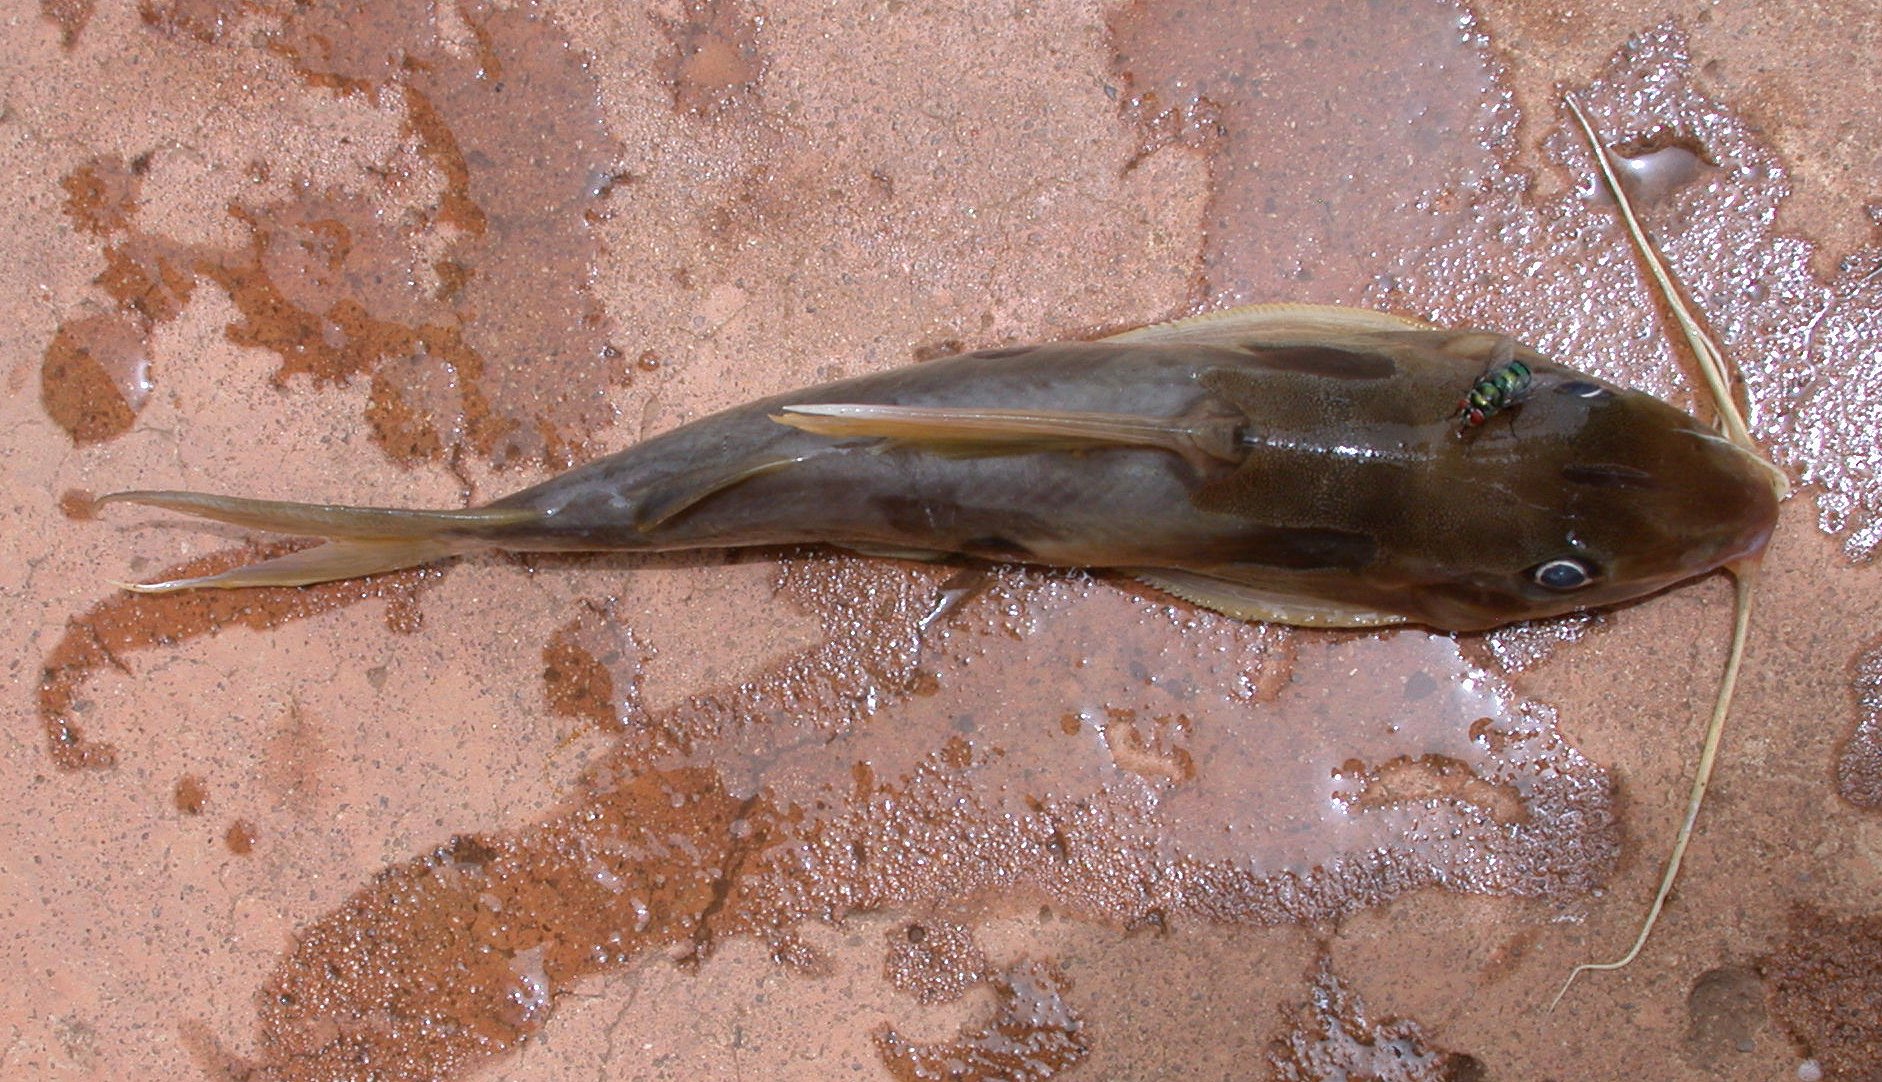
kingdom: Animalia
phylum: Chordata
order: Siluriformes
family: Mochokidae
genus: Synodontis
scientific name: Synodontis notatus
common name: Onespot squeaker
